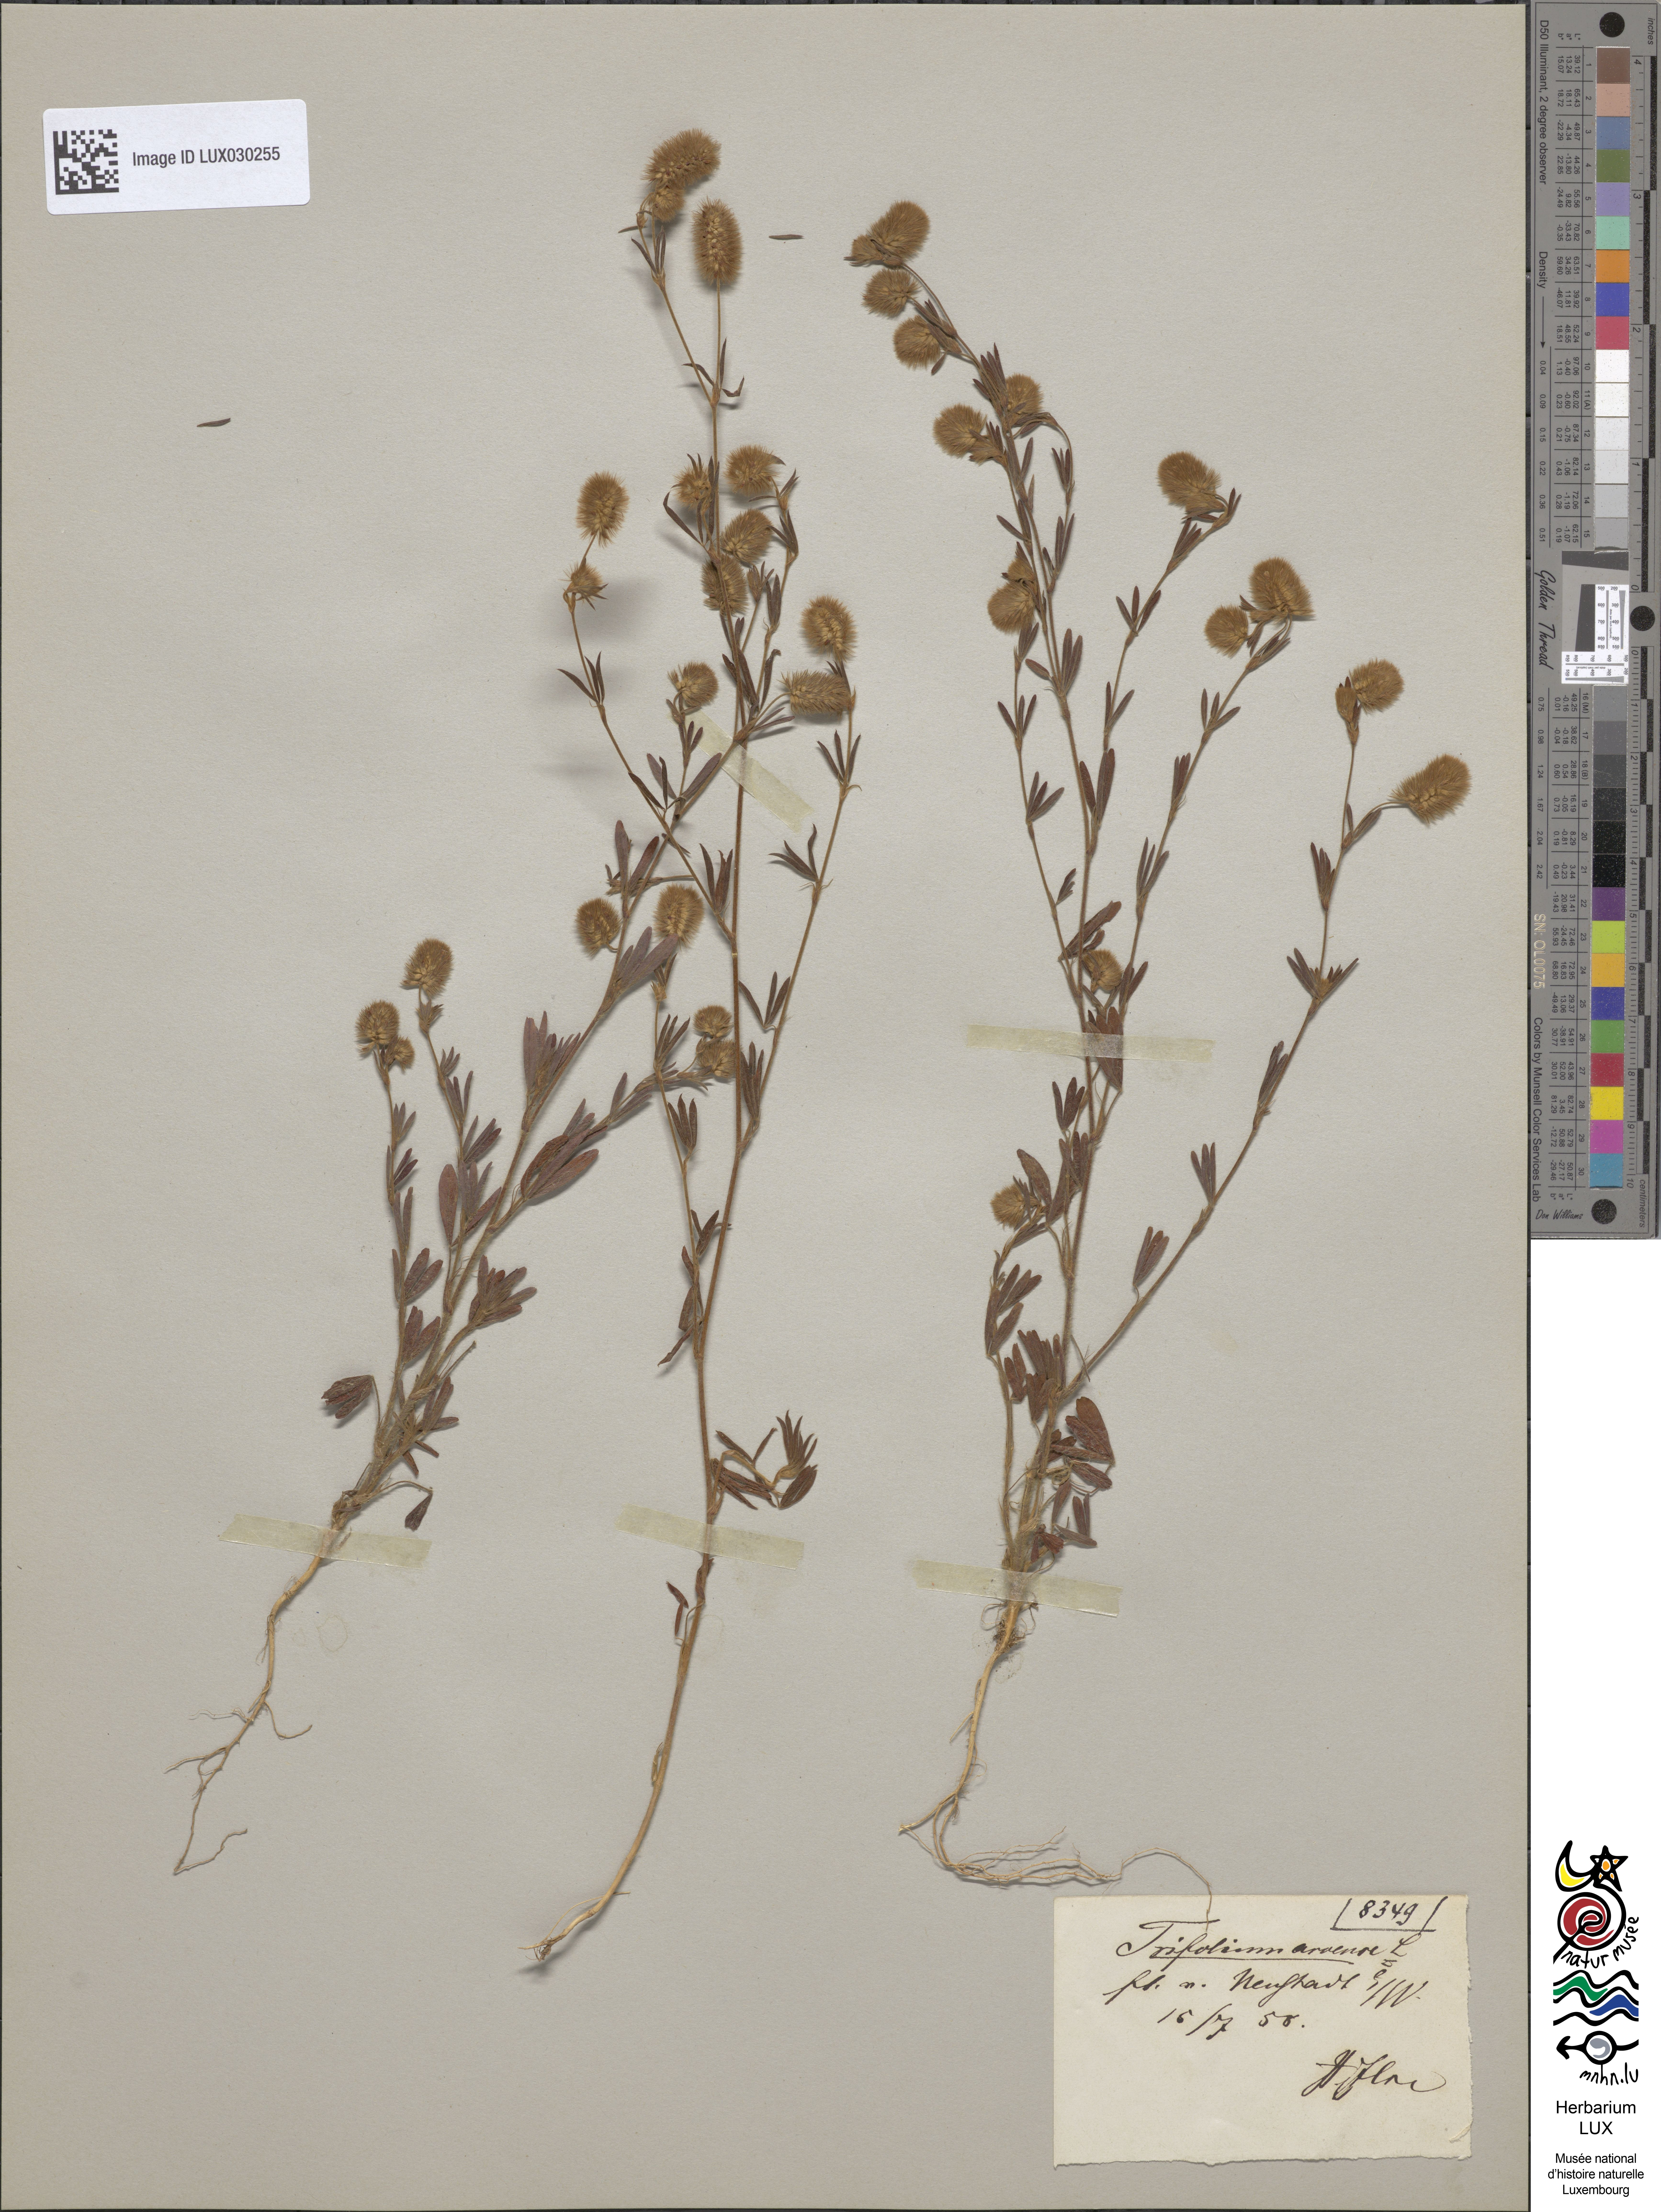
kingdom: Plantae
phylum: Tracheophyta
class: Magnoliopsida
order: Fabales
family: Fabaceae
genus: Trifolium
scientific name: Trifolium arvense
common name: Hare's-foot clover
